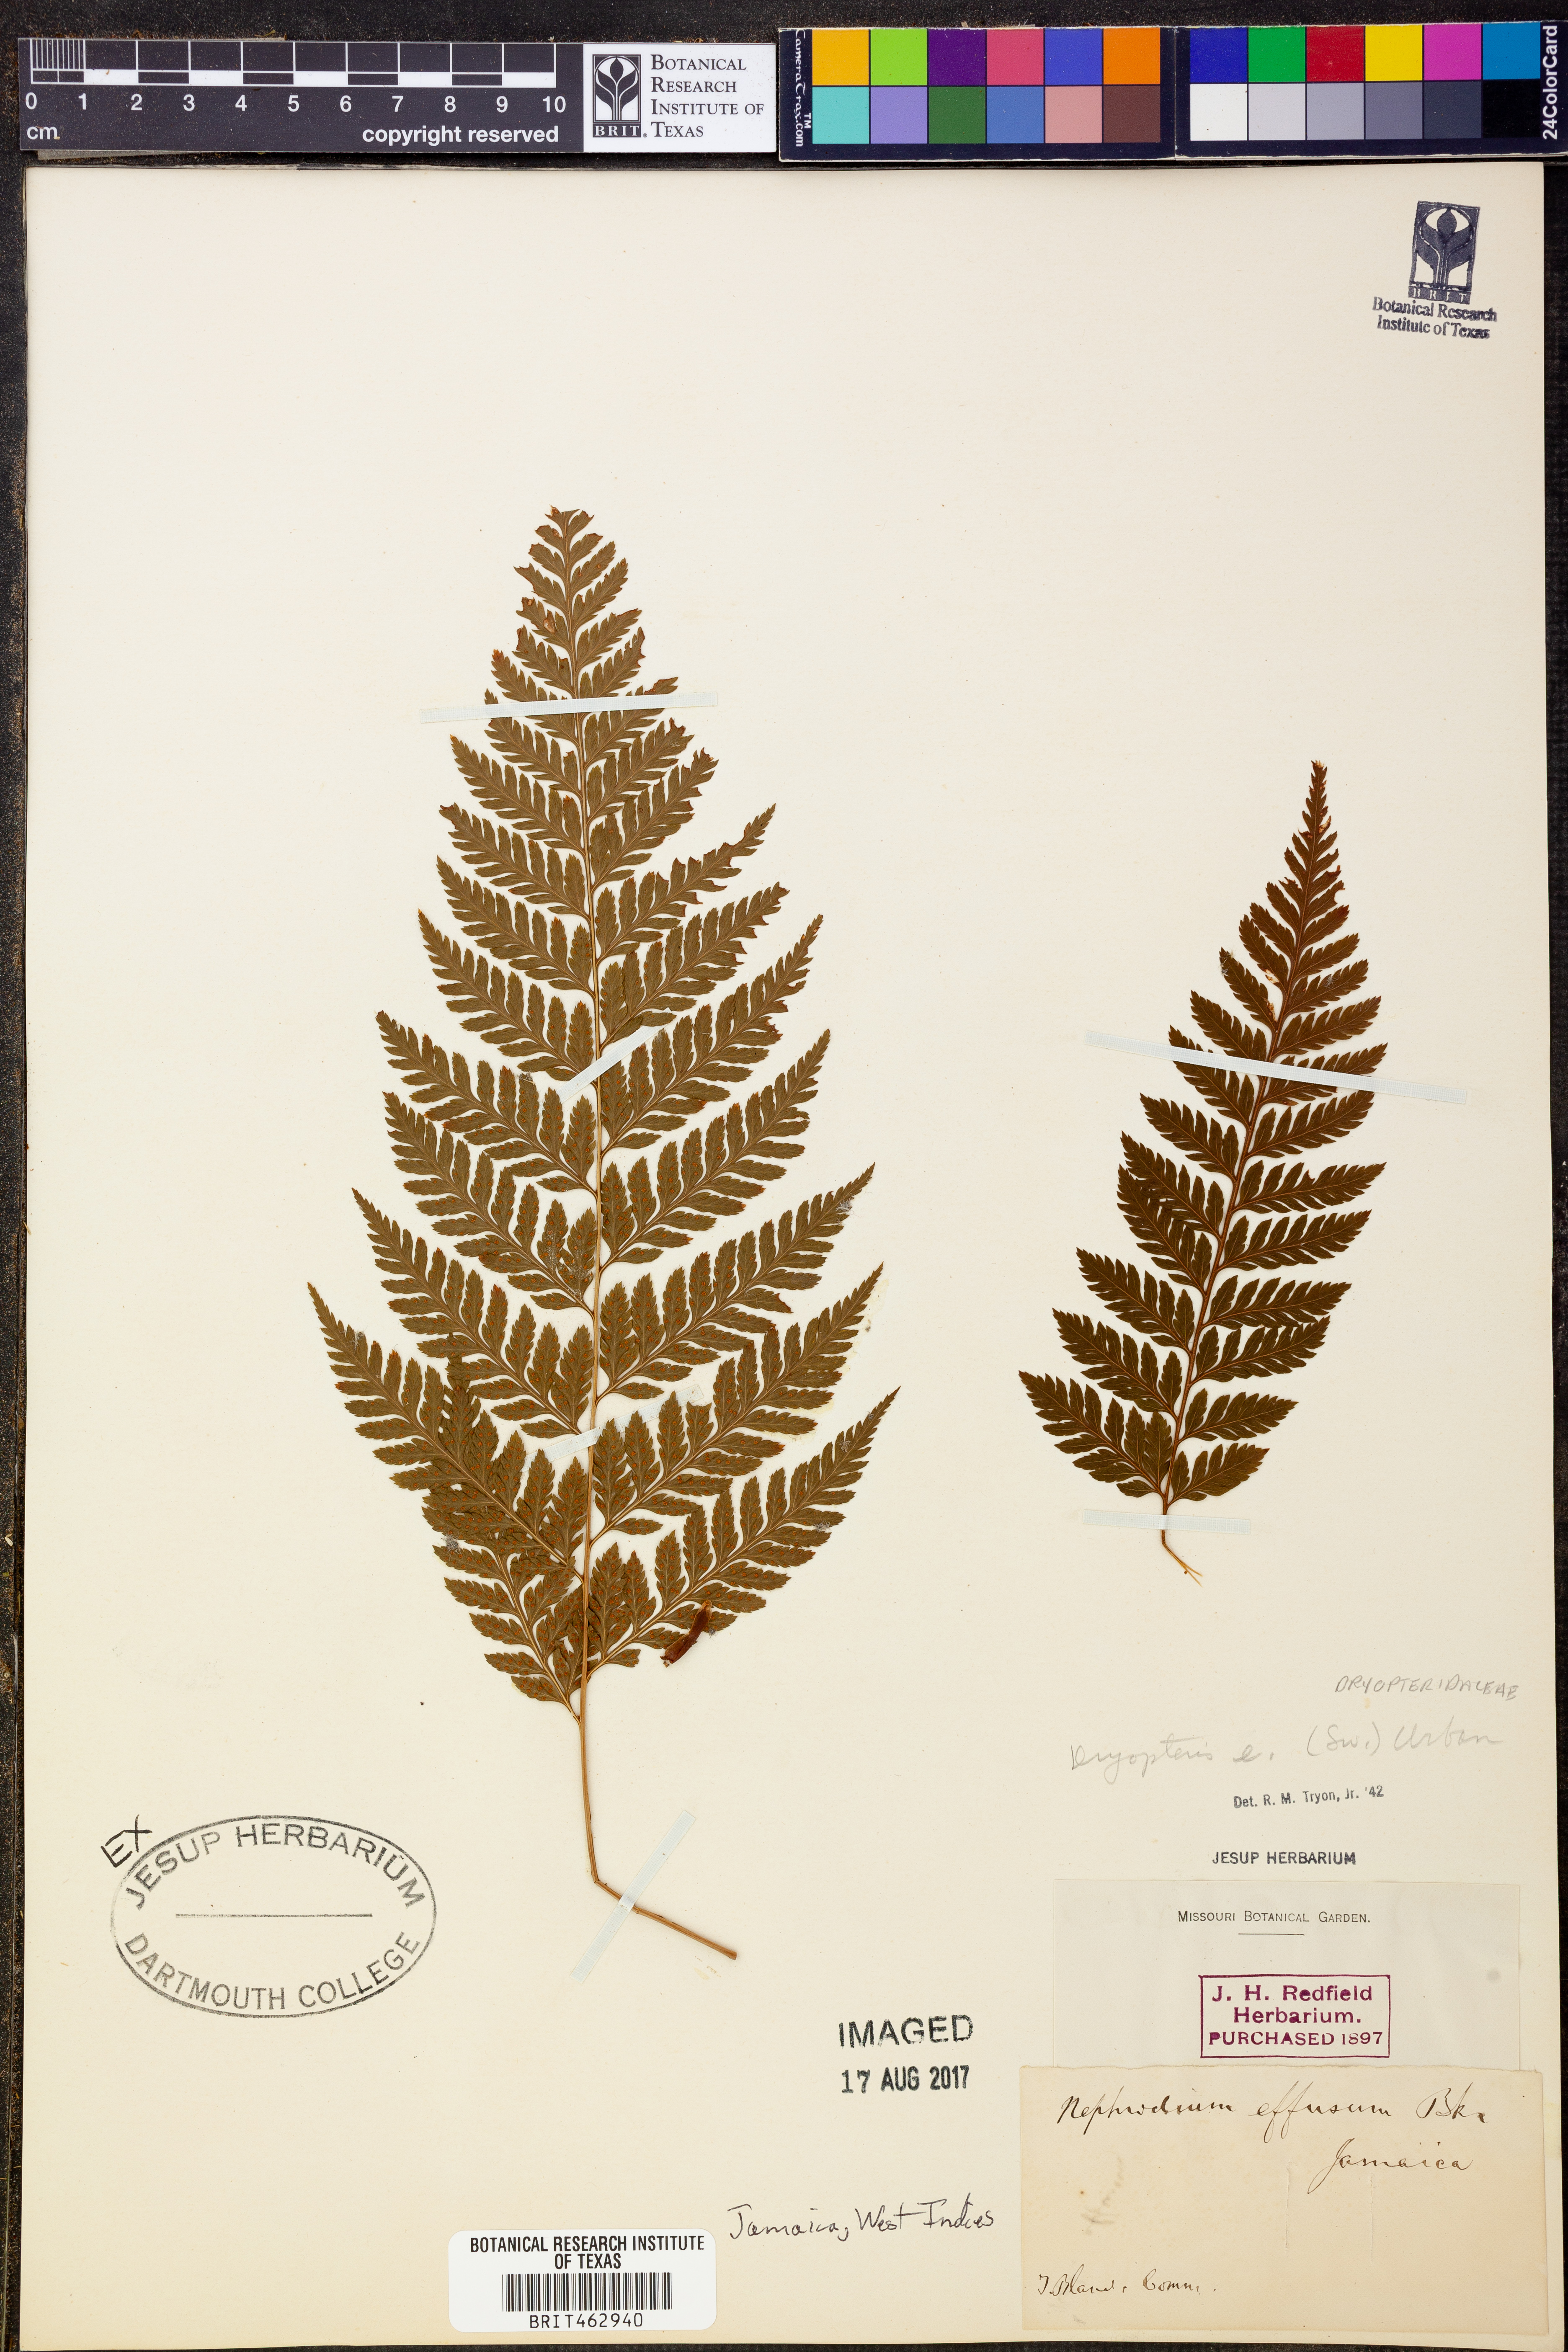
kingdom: Plantae
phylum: Tracheophyta
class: Polypodiopsida
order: Polypodiales
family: Dryopteridaceae
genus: Parapolystichum
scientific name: Parapolystichum effusum
